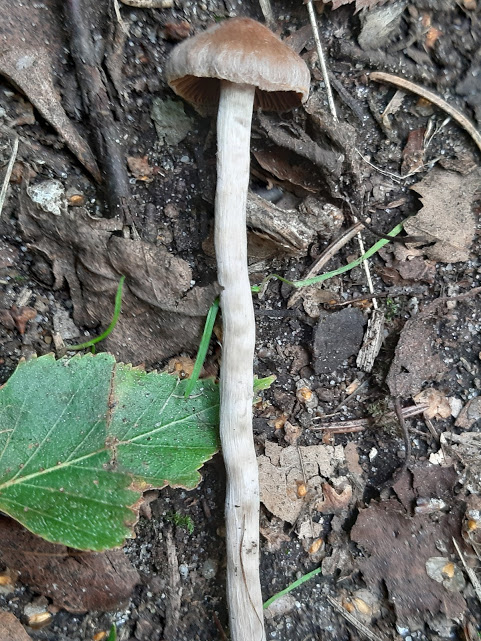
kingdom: Fungi
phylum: Basidiomycota
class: Agaricomycetes
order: Agaricales
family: Cortinariaceae
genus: Cortinarius
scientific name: Cortinarius
